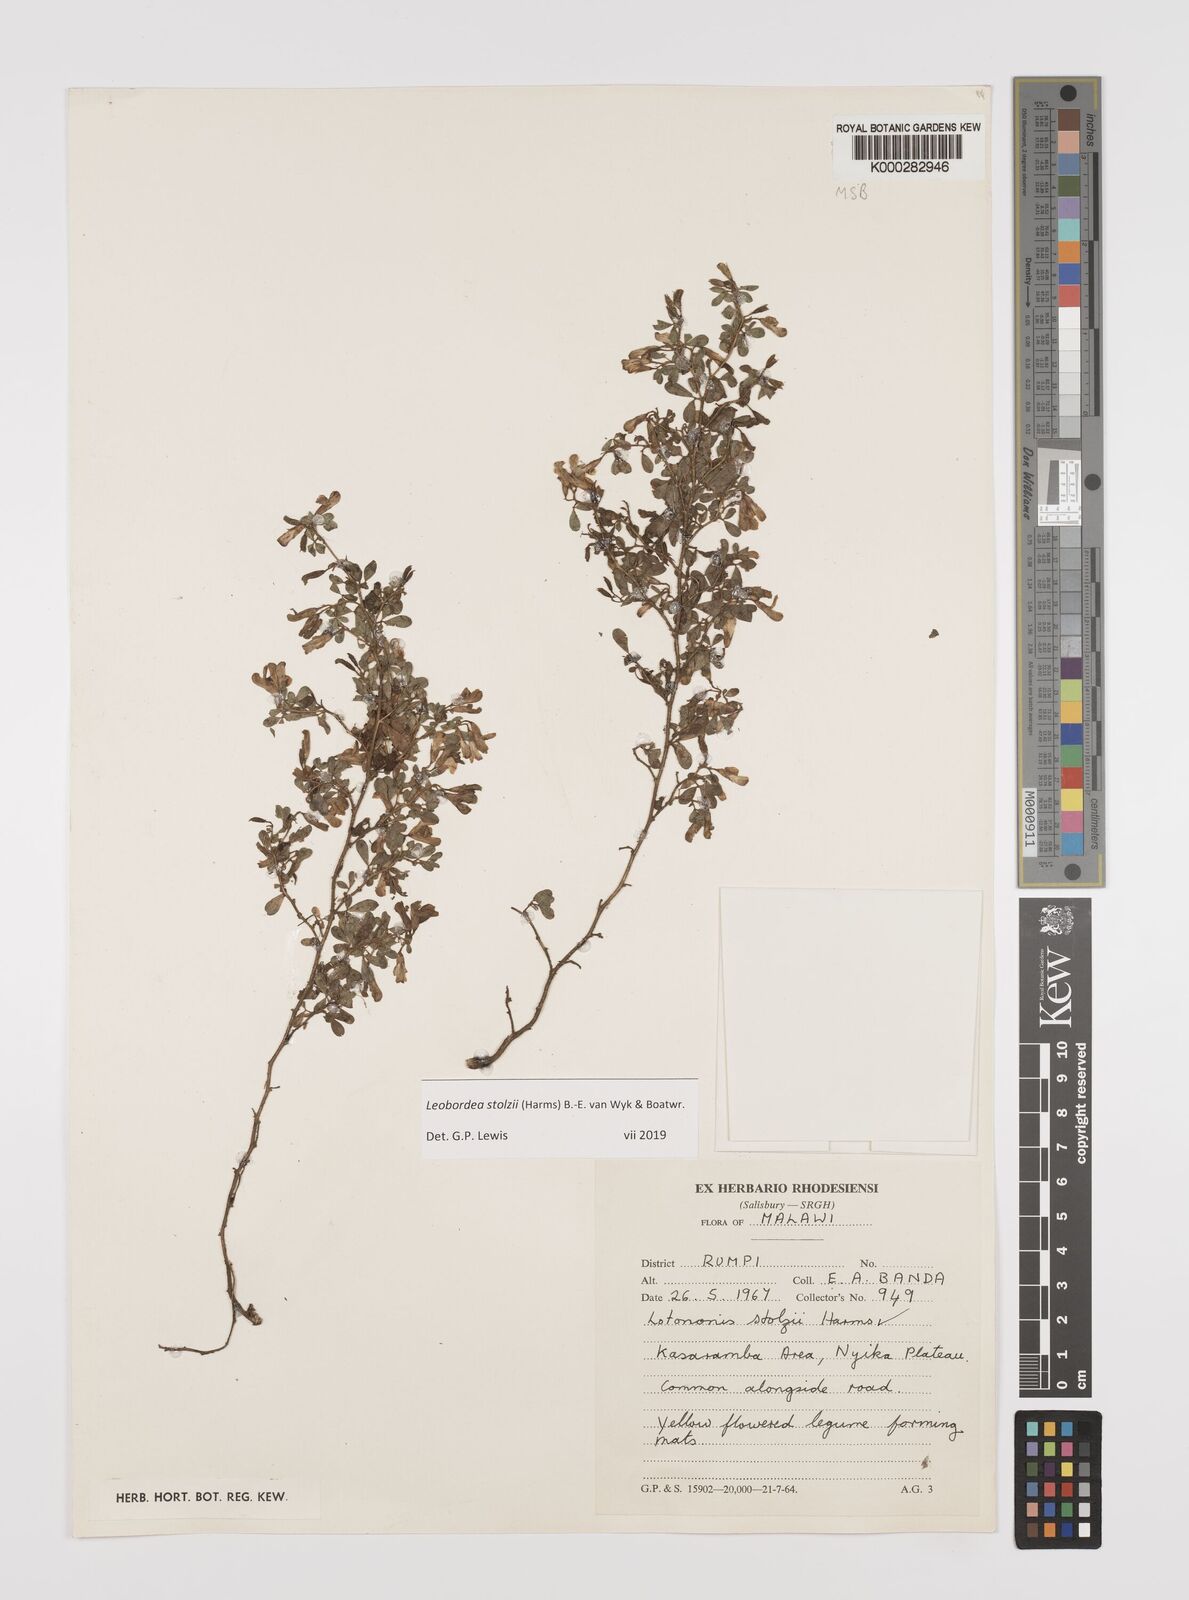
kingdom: Plantae
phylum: Tracheophyta
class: Magnoliopsida
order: Fabales
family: Fabaceae
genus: Leobordea
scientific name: Leobordea stolzii
